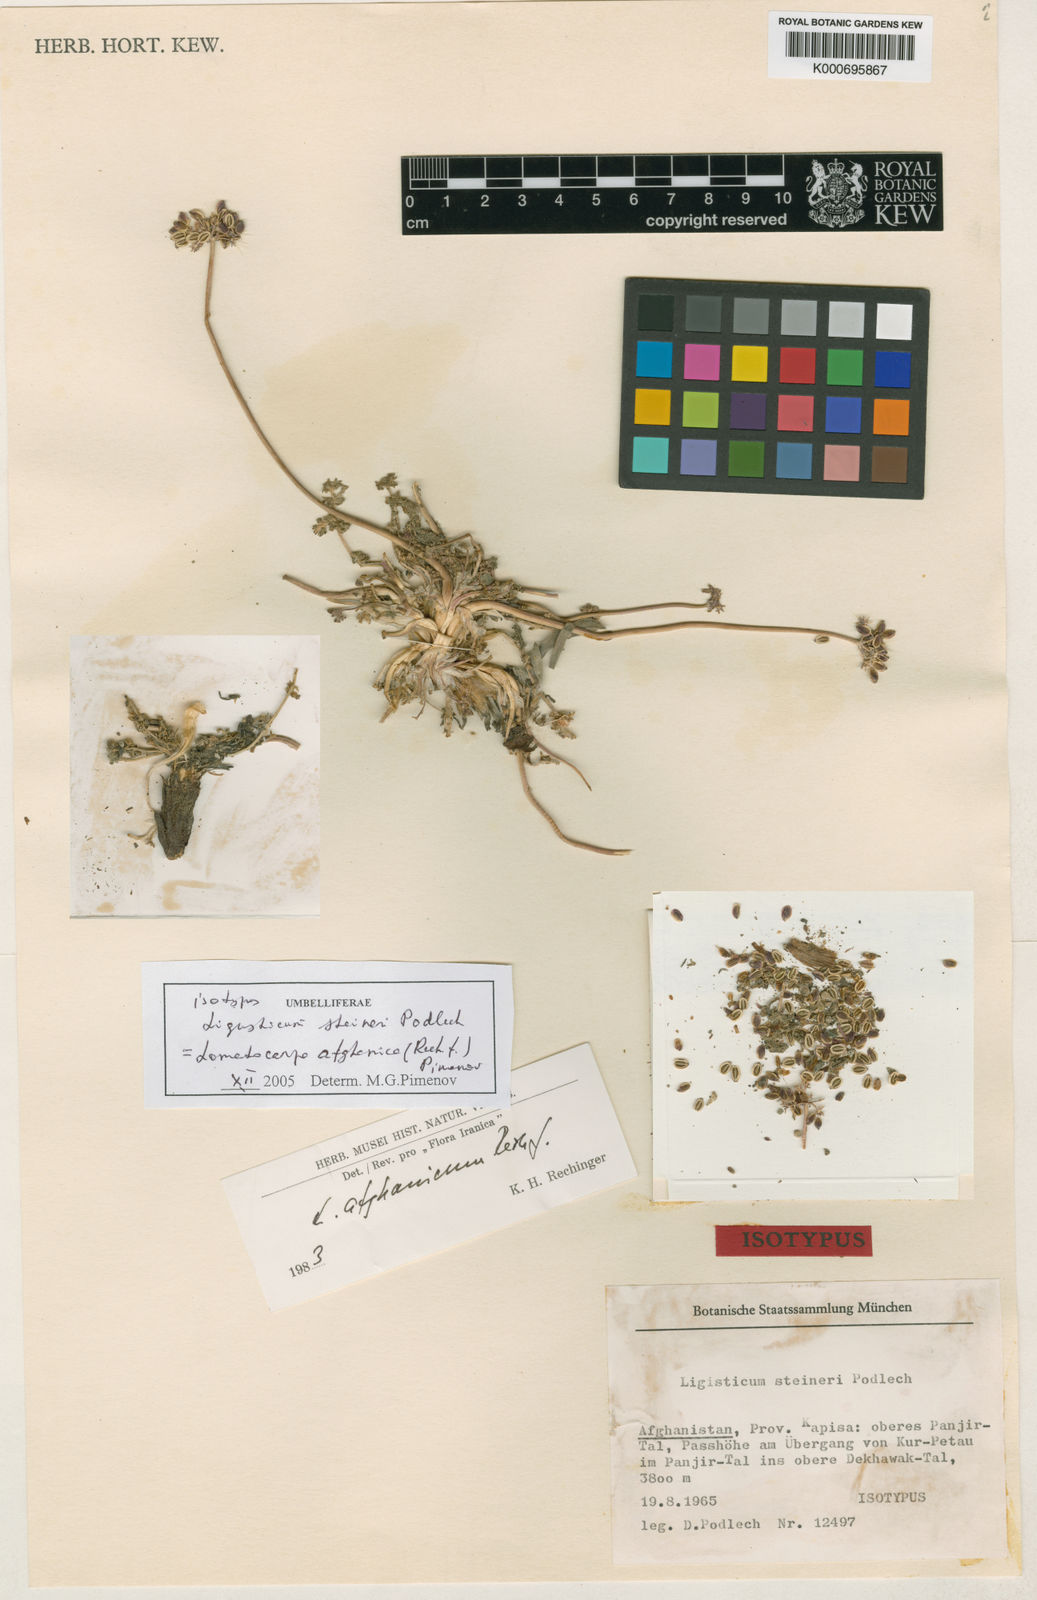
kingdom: Plantae
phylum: Tracheophyta
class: Magnoliopsida
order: Apiales
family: Apiaceae
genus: Lomatocarpa
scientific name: Lomatocarpa steineri
